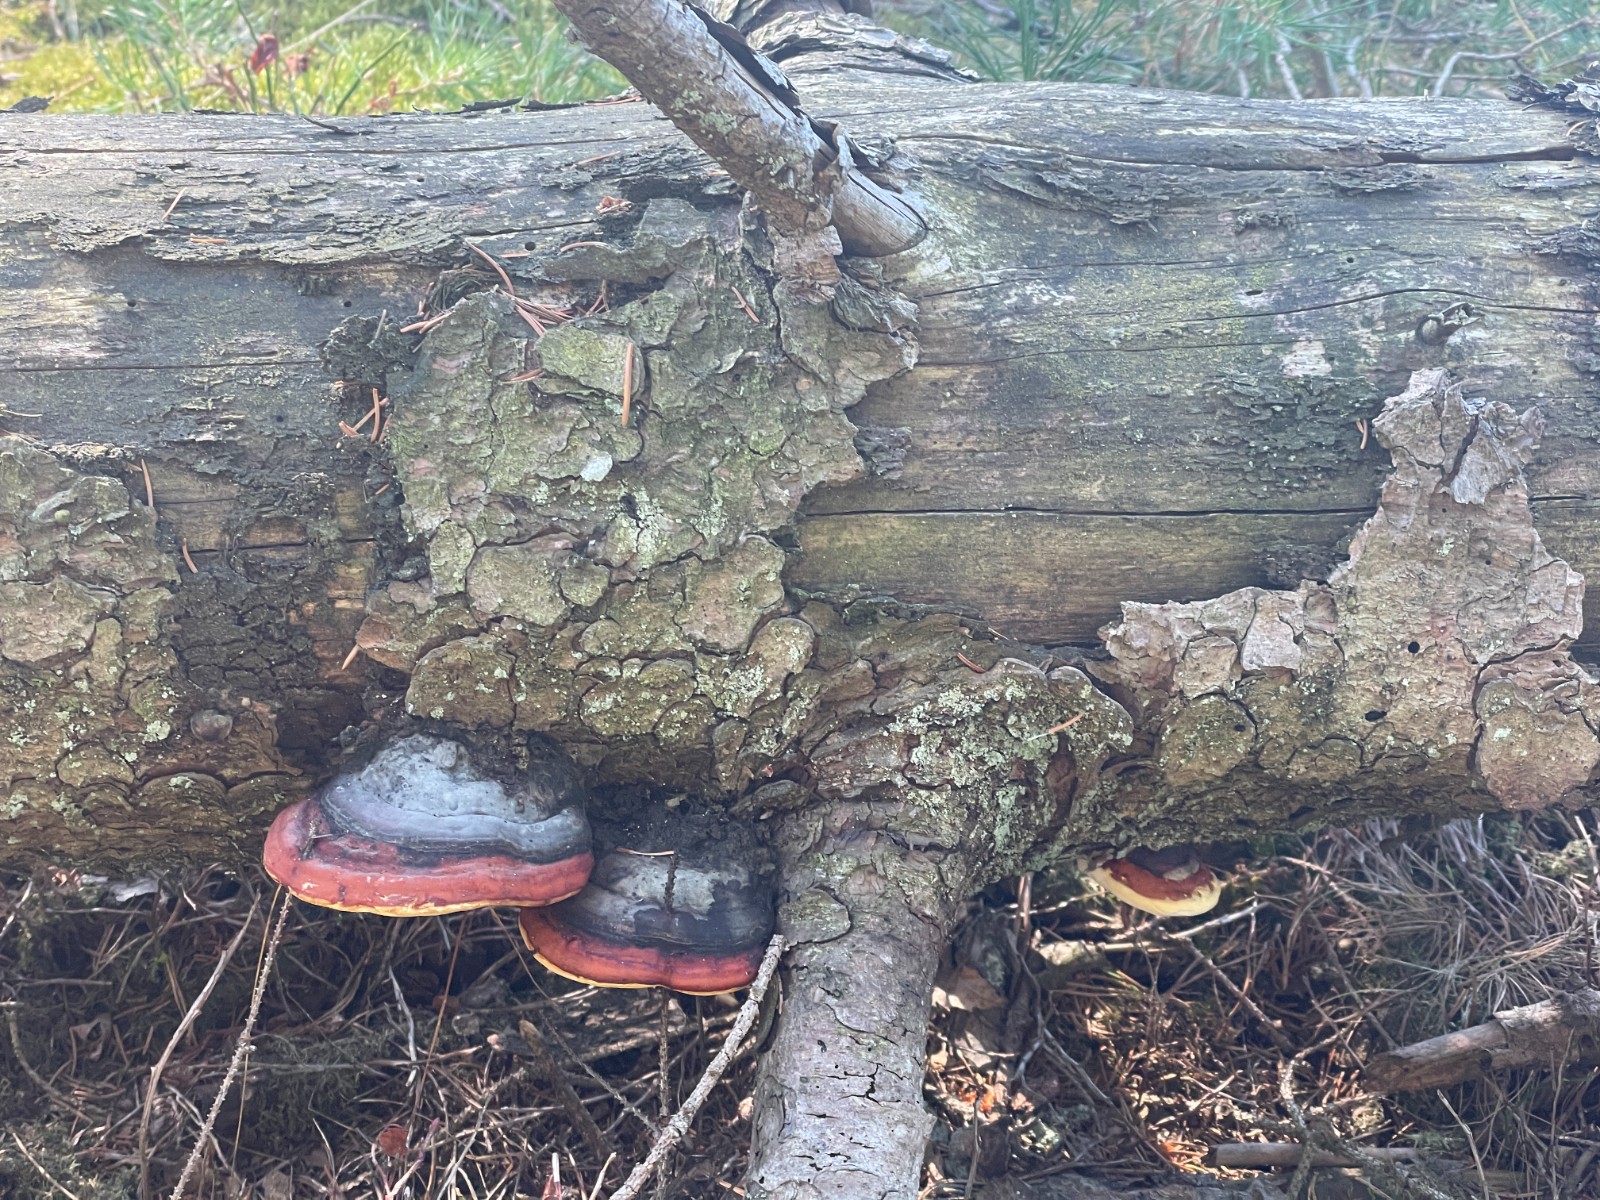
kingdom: Fungi
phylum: Basidiomycota
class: Agaricomycetes
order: Polyporales
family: Fomitopsidaceae
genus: Fomitopsis
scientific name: Fomitopsis pinicola
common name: randbæltet hovporesvamp
